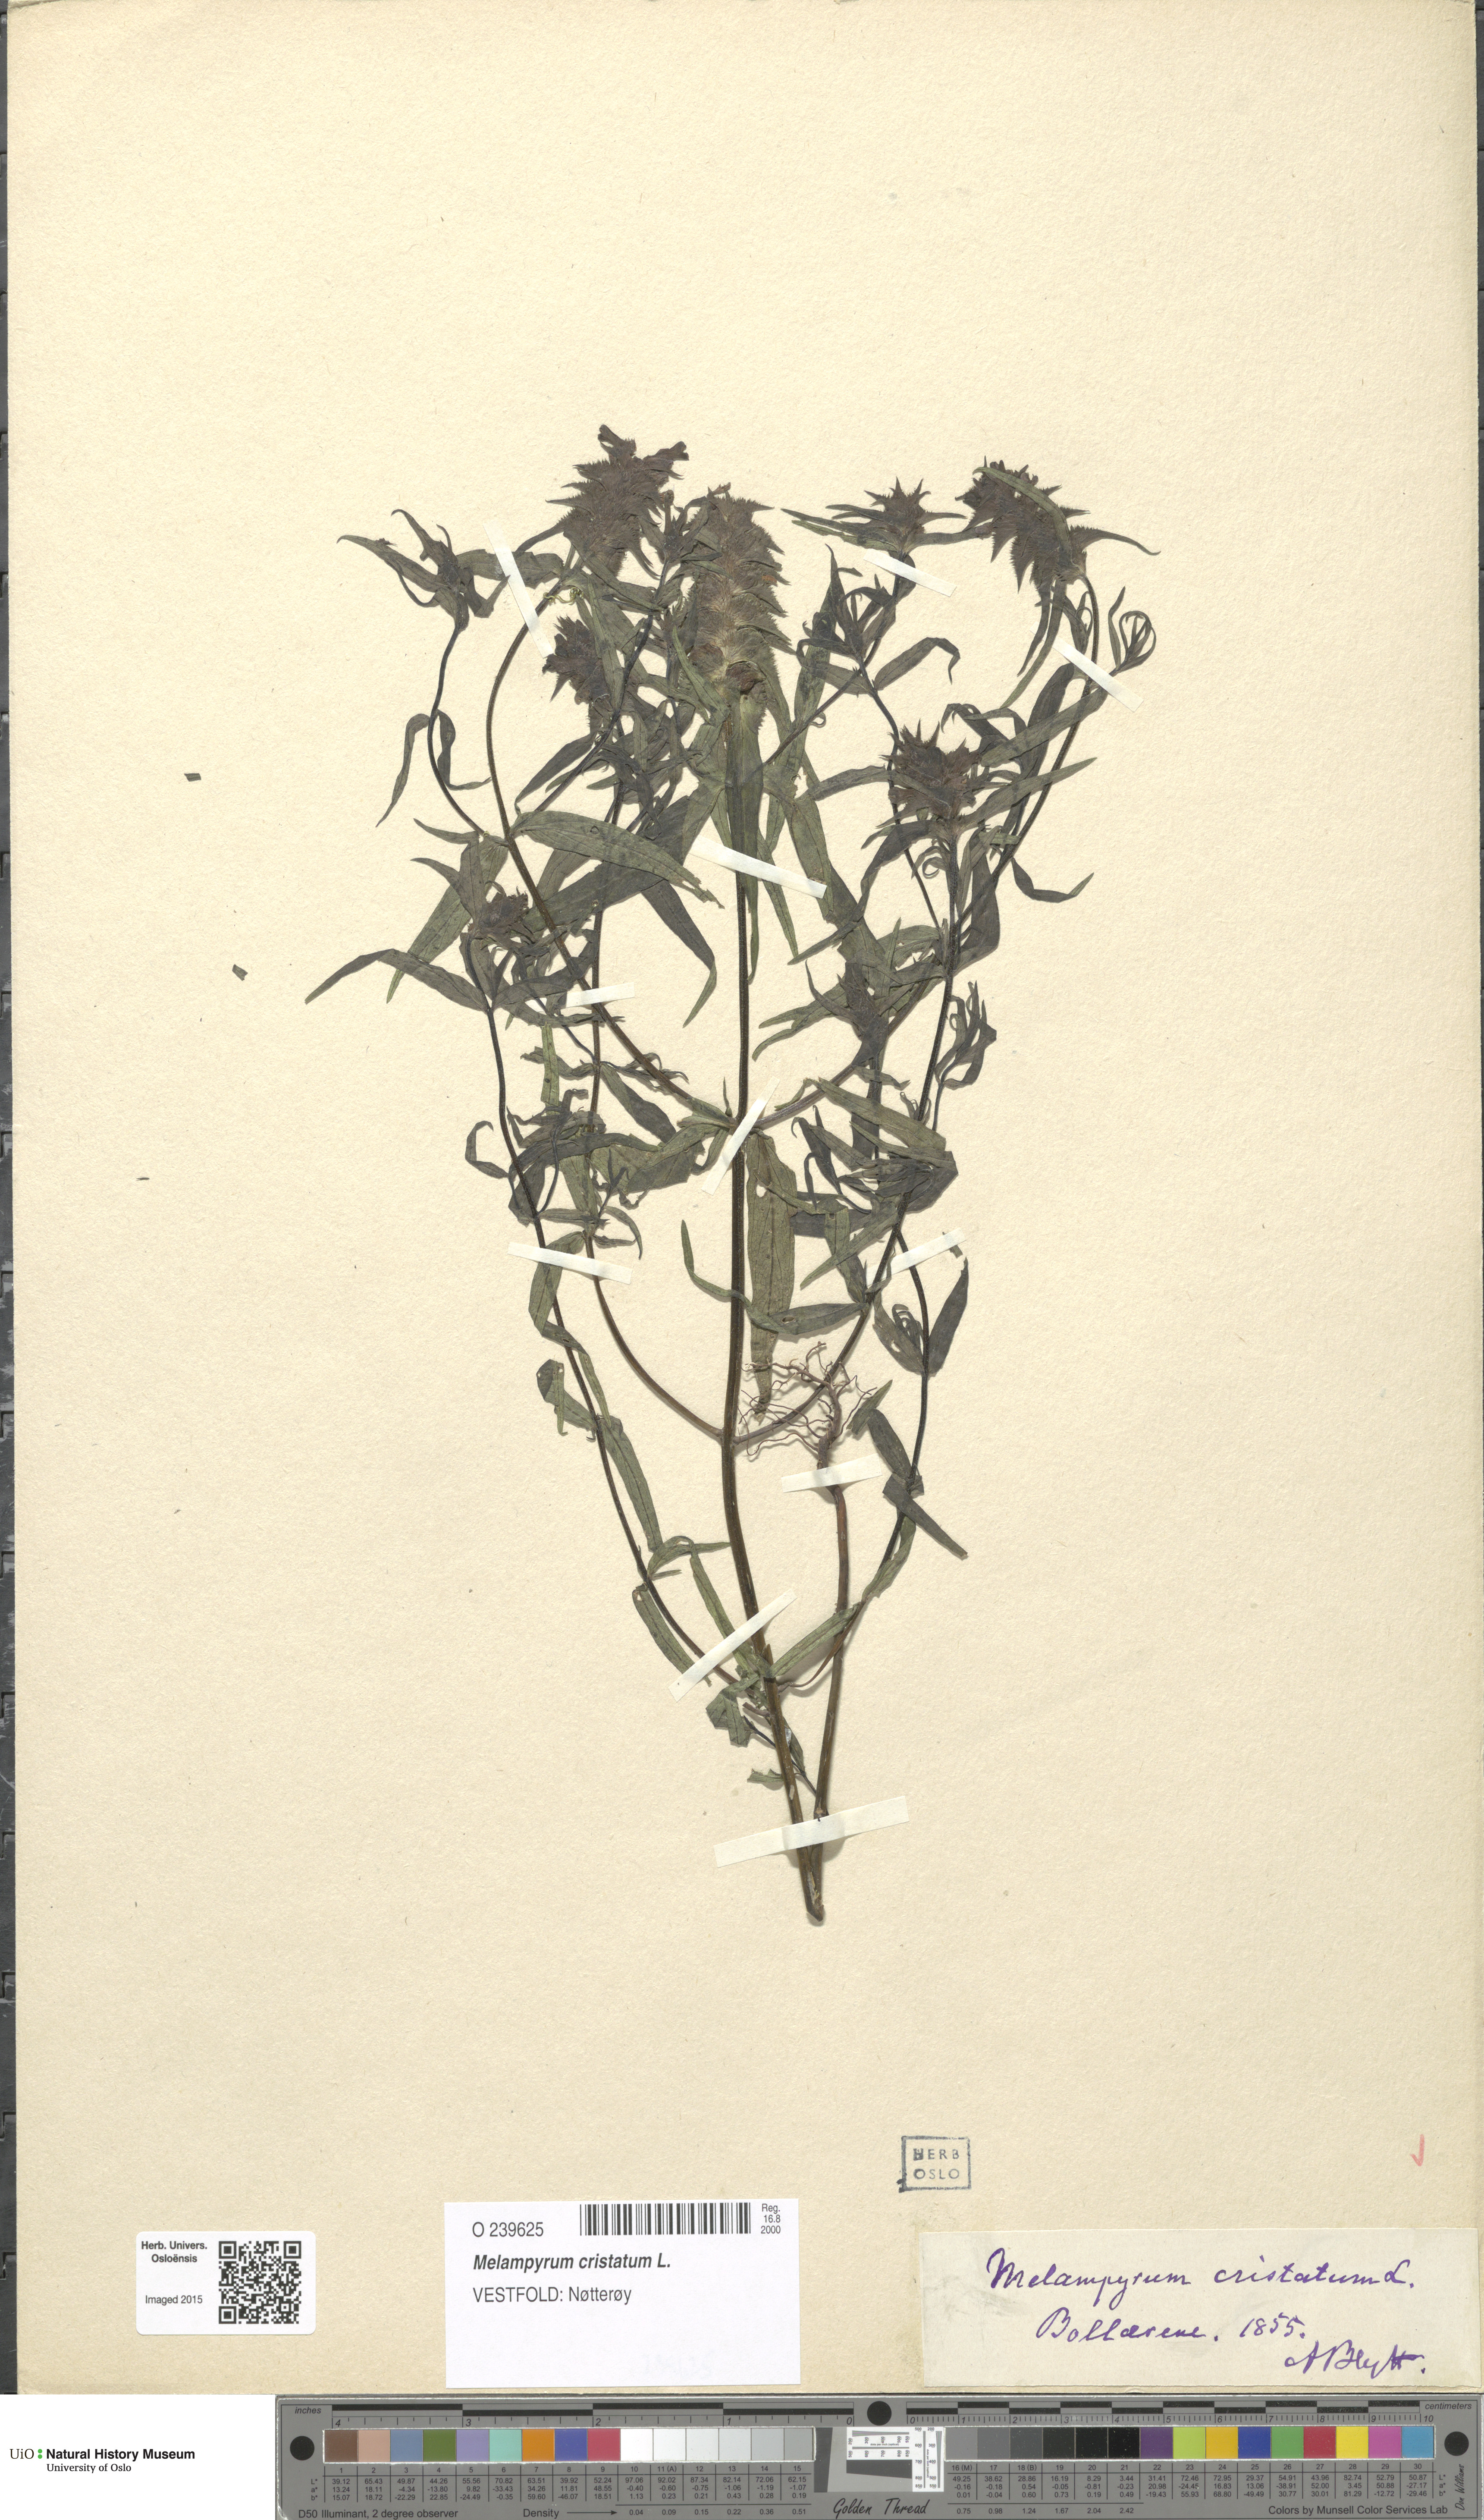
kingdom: Plantae
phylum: Tracheophyta
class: Magnoliopsida
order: Lamiales
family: Orobanchaceae
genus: Melampyrum
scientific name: Melampyrum cristatum
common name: Crested cow-wheat
